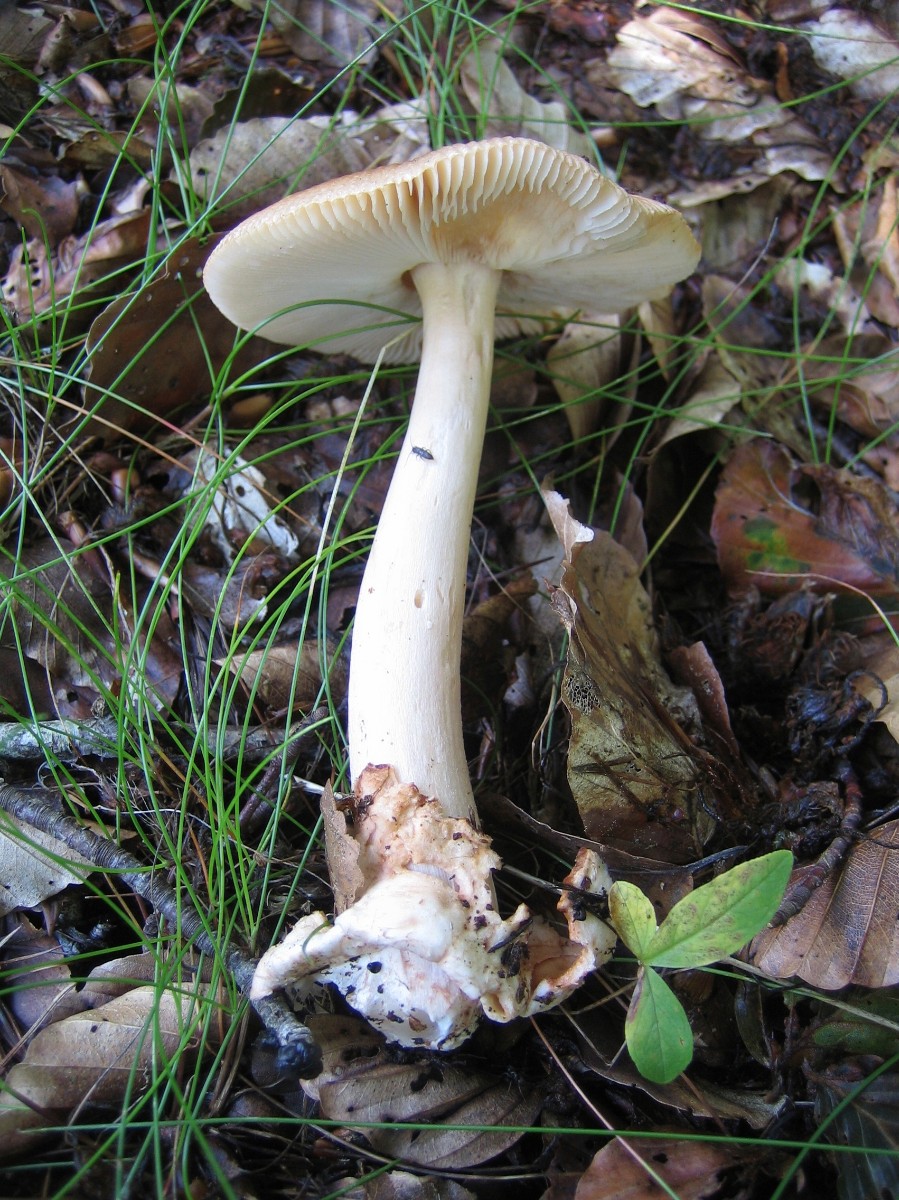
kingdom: Fungi
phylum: Basidiomycota
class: Agaricomycetes
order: Agaricales
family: Amanitaceae
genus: Amanita
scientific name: Amanita fulva
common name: brun kam-fluesvamp
